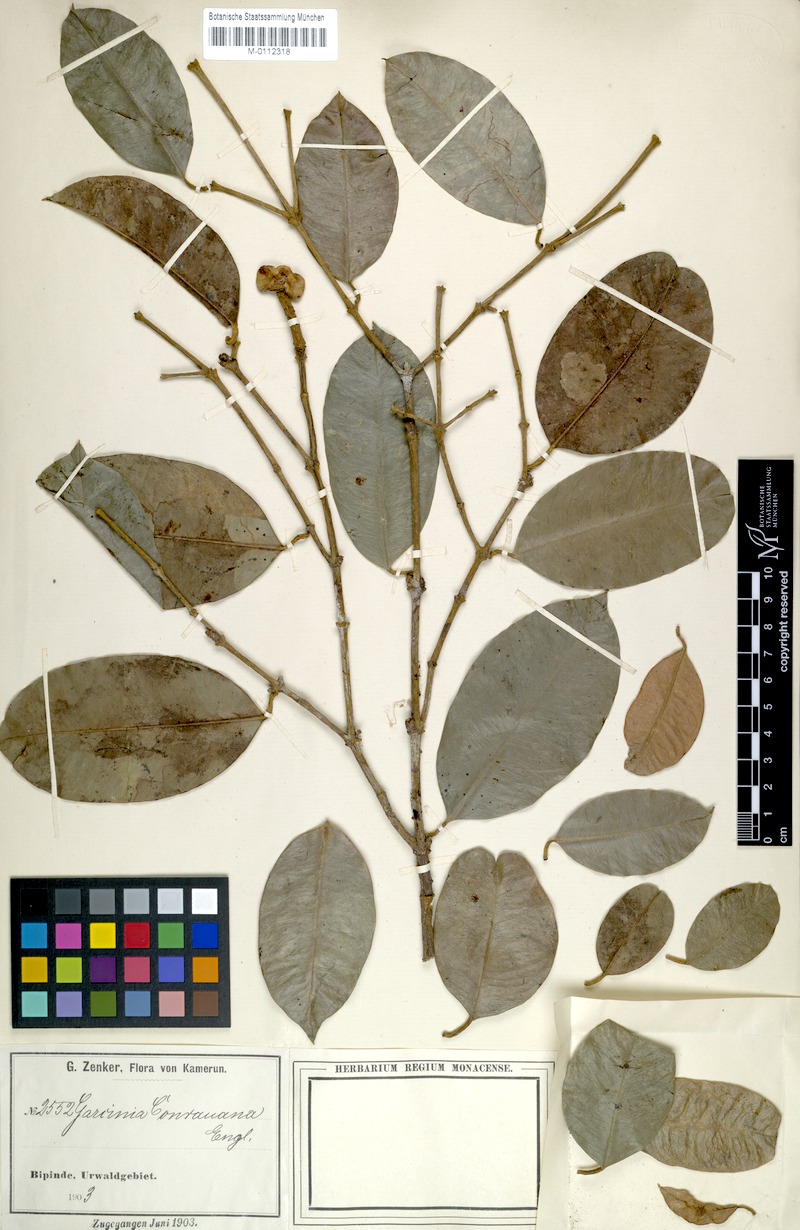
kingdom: Plantae
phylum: Tracheophyta
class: Magnoliopsida
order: Malpighiales
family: Clusiaceae
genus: Garcinia
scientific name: Garcinia conrauana
